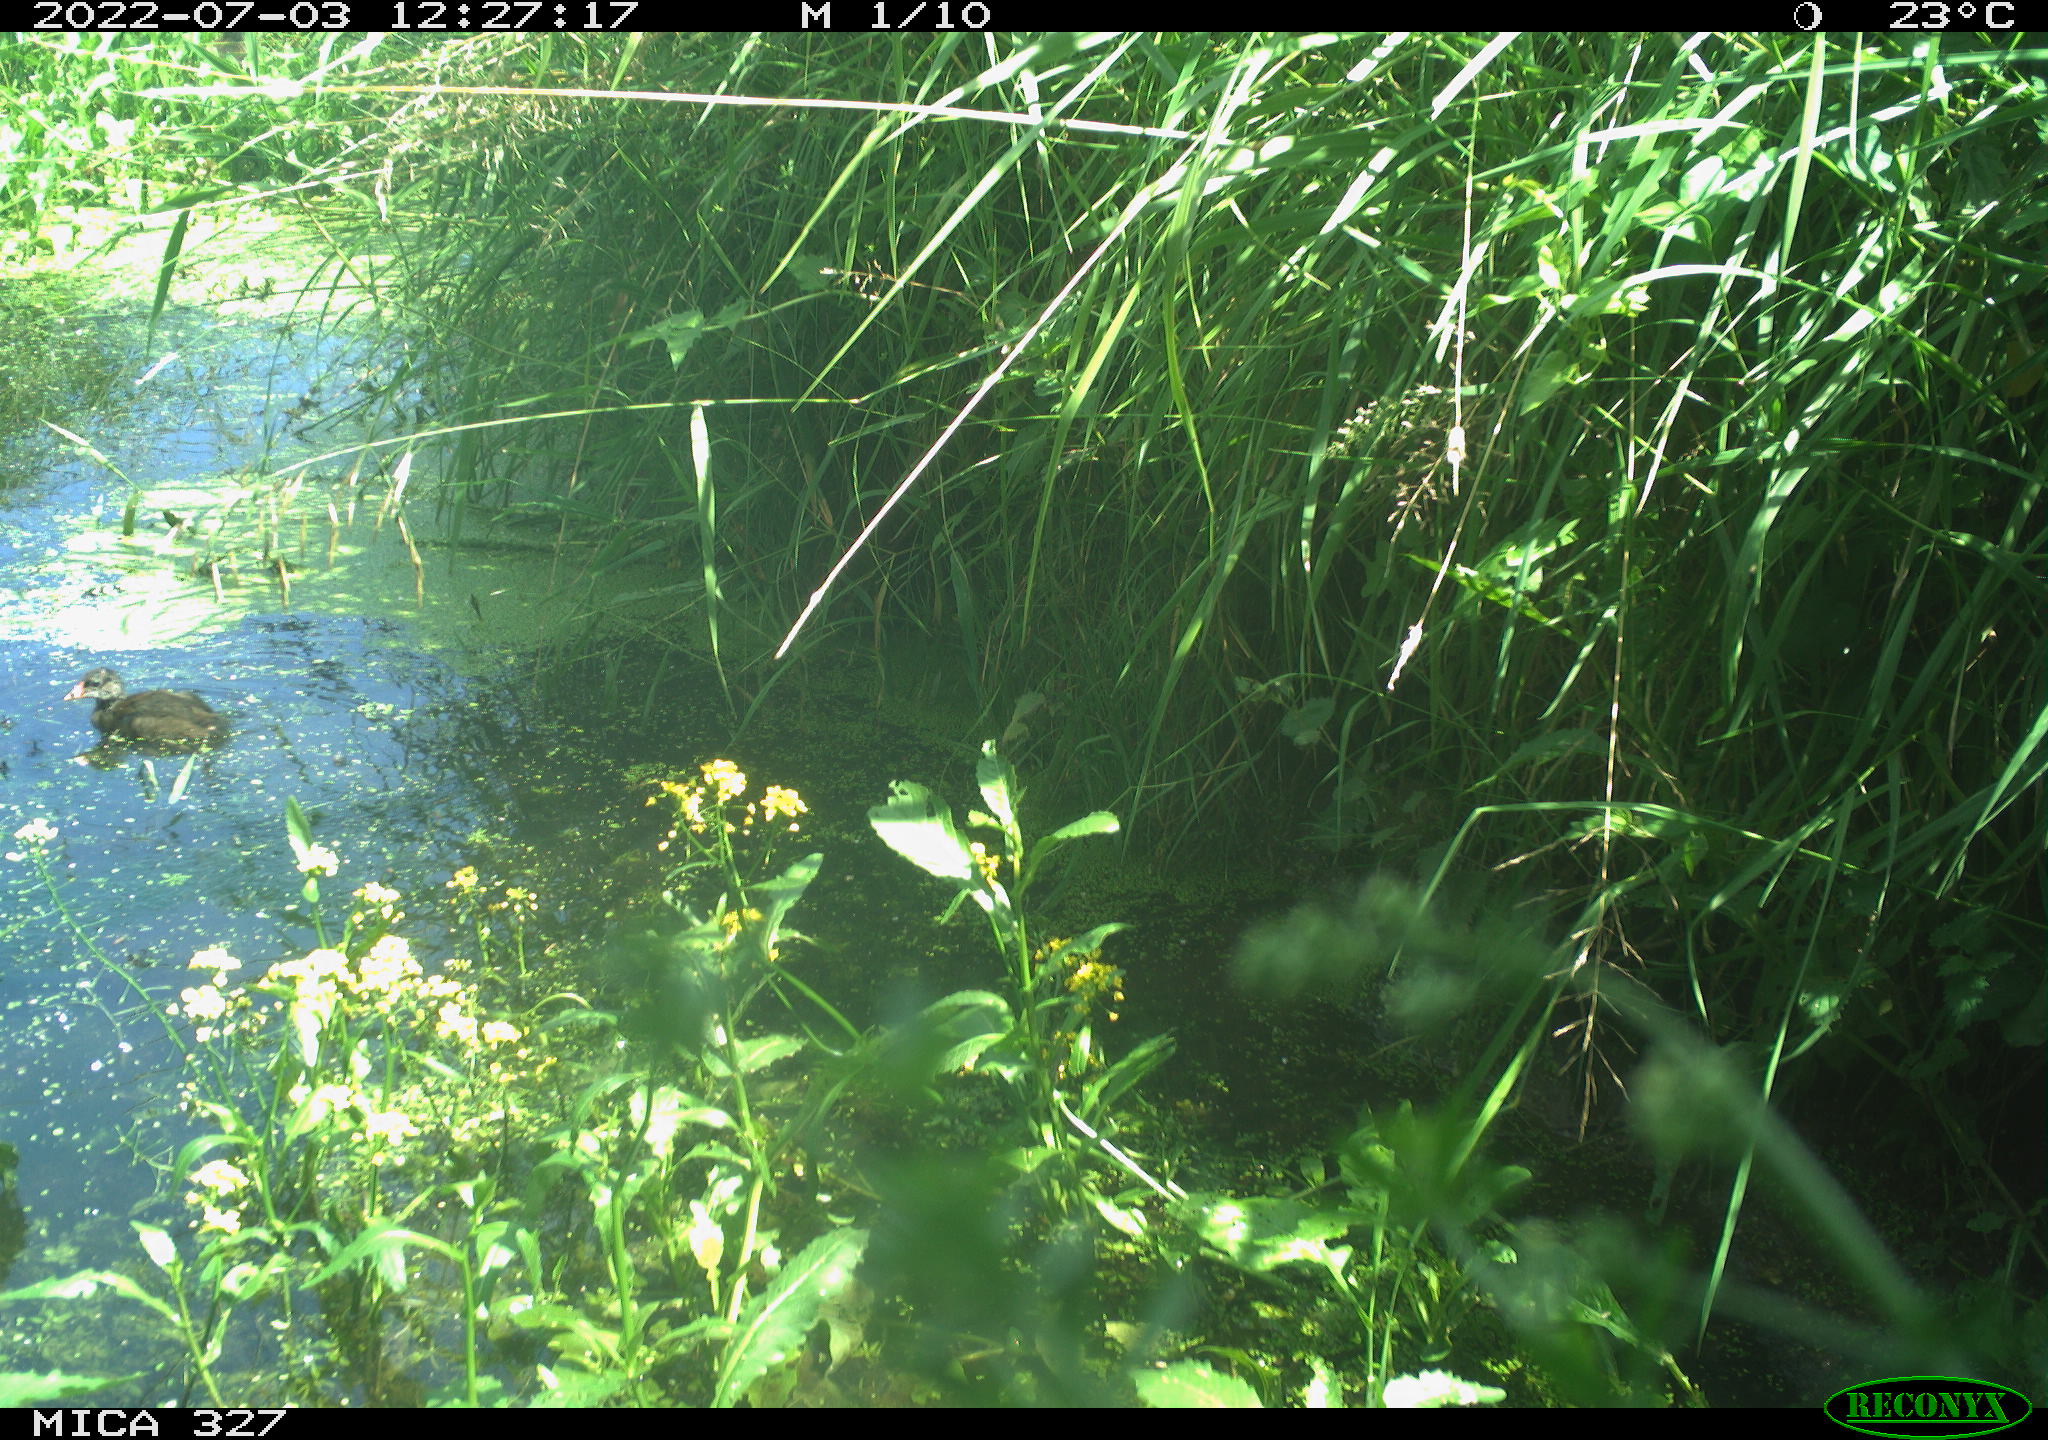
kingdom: Animalia
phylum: Chordata
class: Aves
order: Gruiformes
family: Rallidae
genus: Gallinula
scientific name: Gallinula chloropus
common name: Common moorhen
